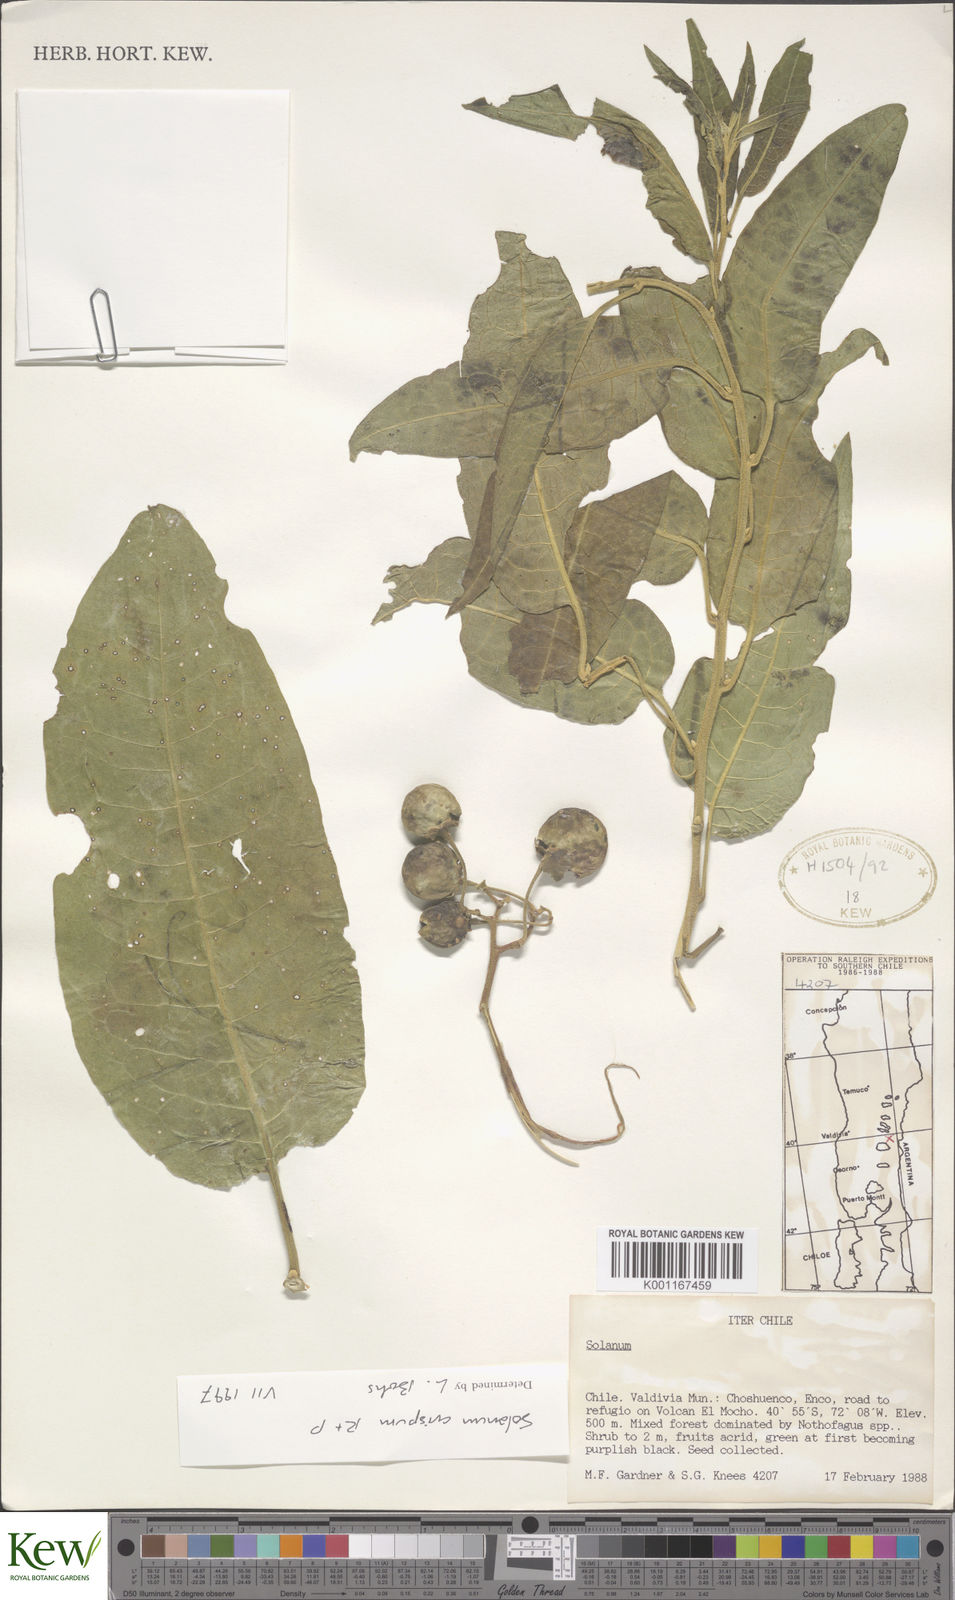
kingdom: Plantae
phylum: Tracheophyta
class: Magnoliopsida
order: Solanales
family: Solanaceae
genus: Solanum
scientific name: Solanum crispum
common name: Chilean nightshade
